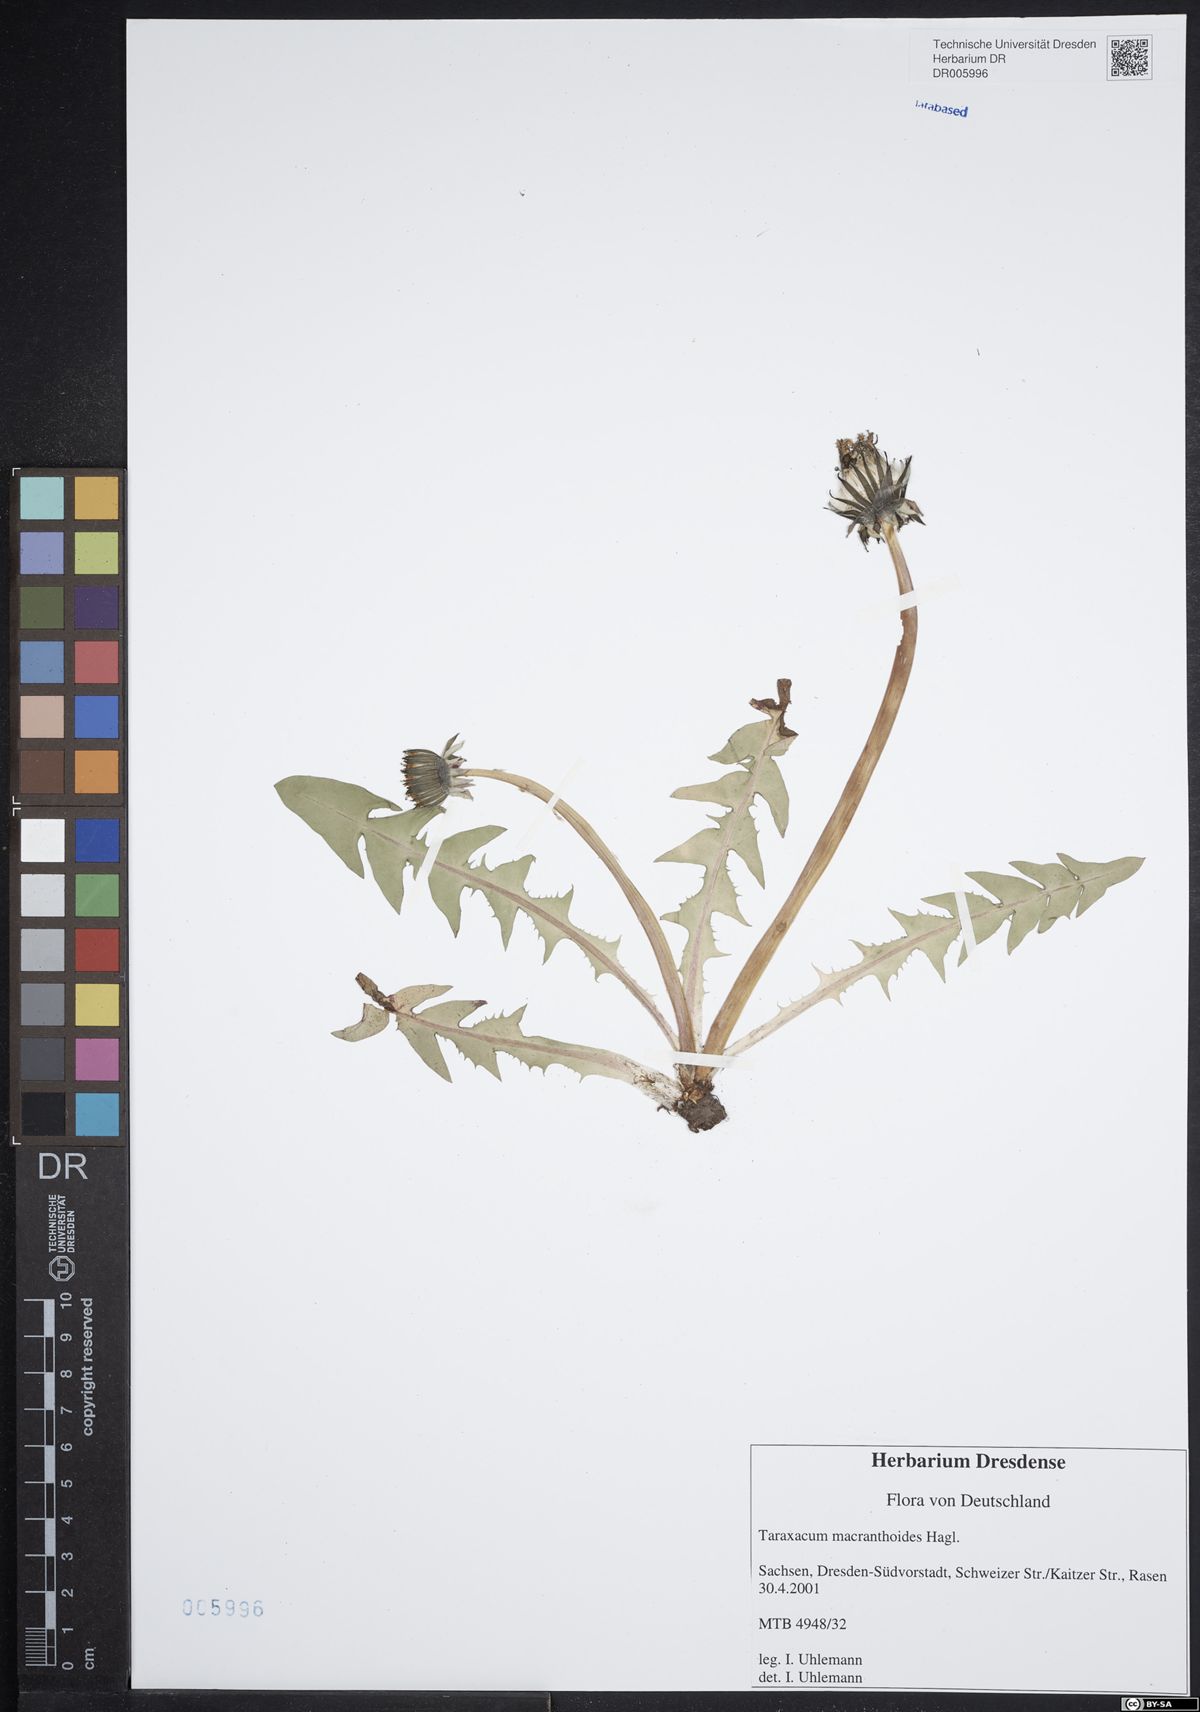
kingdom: Plantae
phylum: Tracheophyta
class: Magnoliopsida
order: Asterales
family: Asteraceae
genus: Taraxacum
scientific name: Taraxacum macranthoides
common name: Large-flowered dandelion
